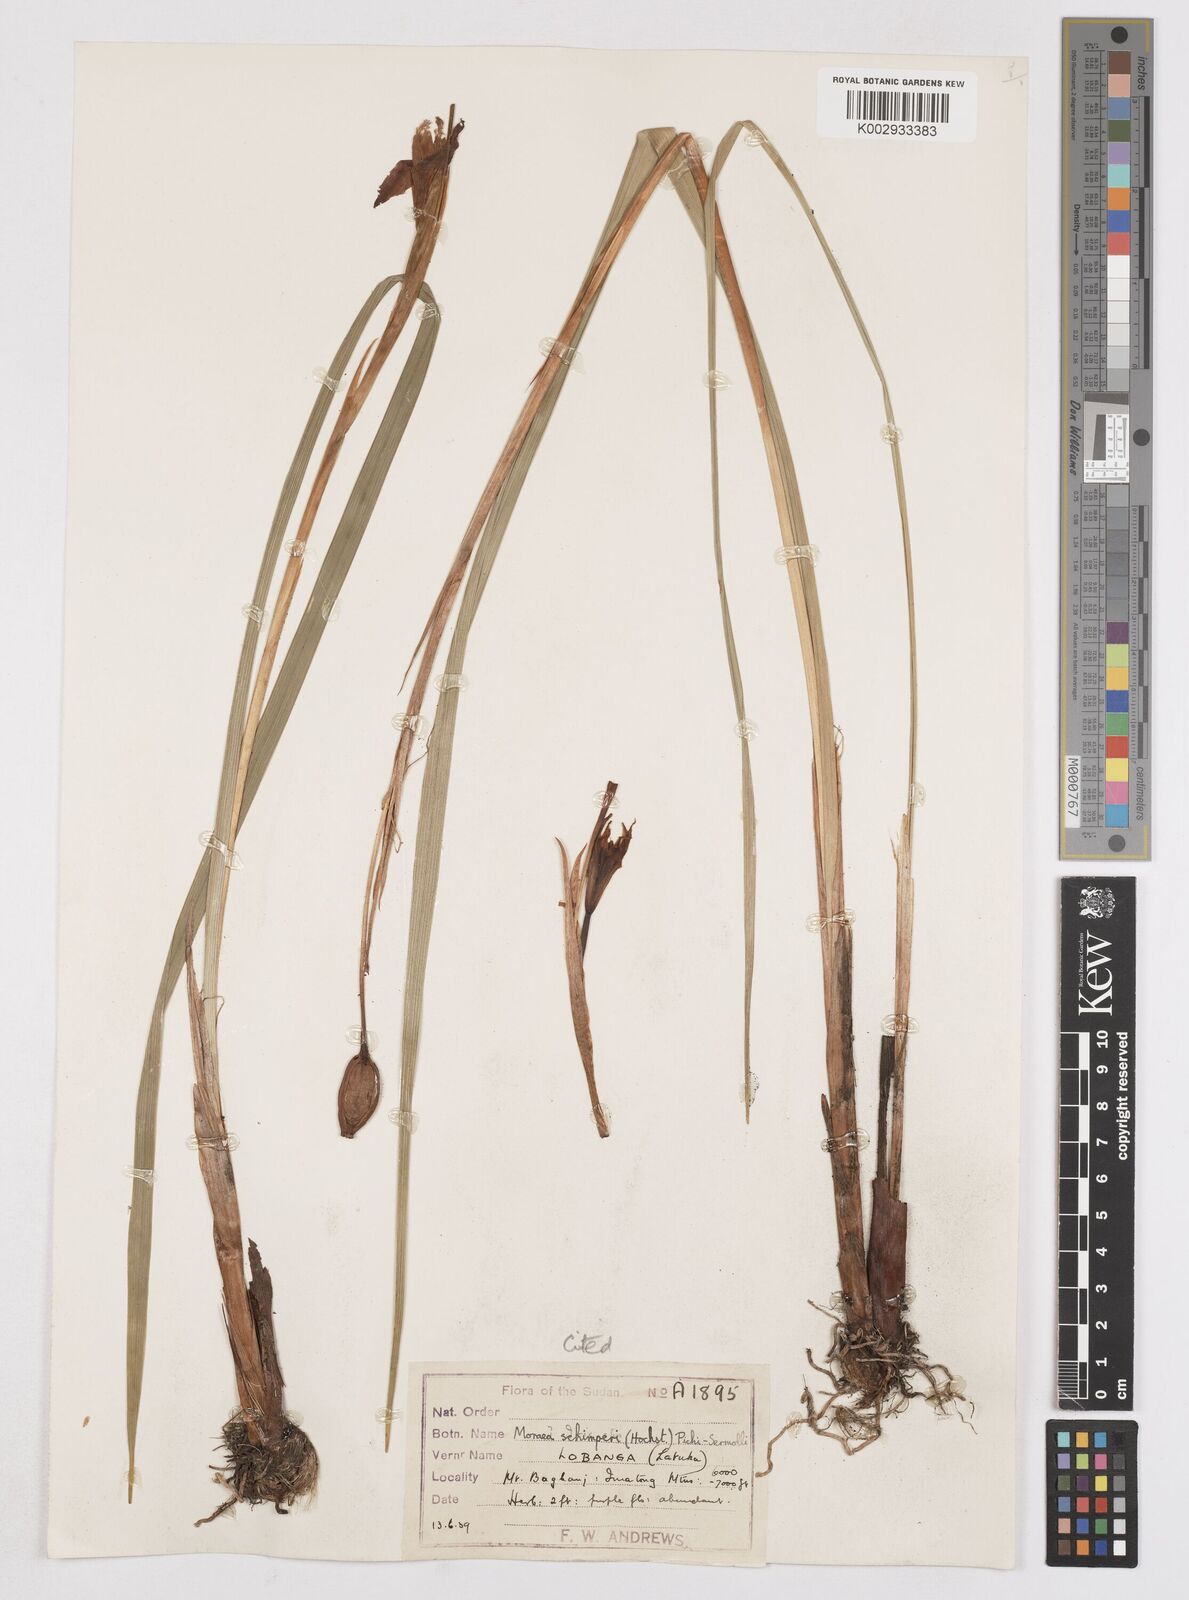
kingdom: Plantae
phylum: Tracheophyta
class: Liliopsida
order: Asparagales
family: Iridaceae
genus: Moraea
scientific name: Moraea schimperi
